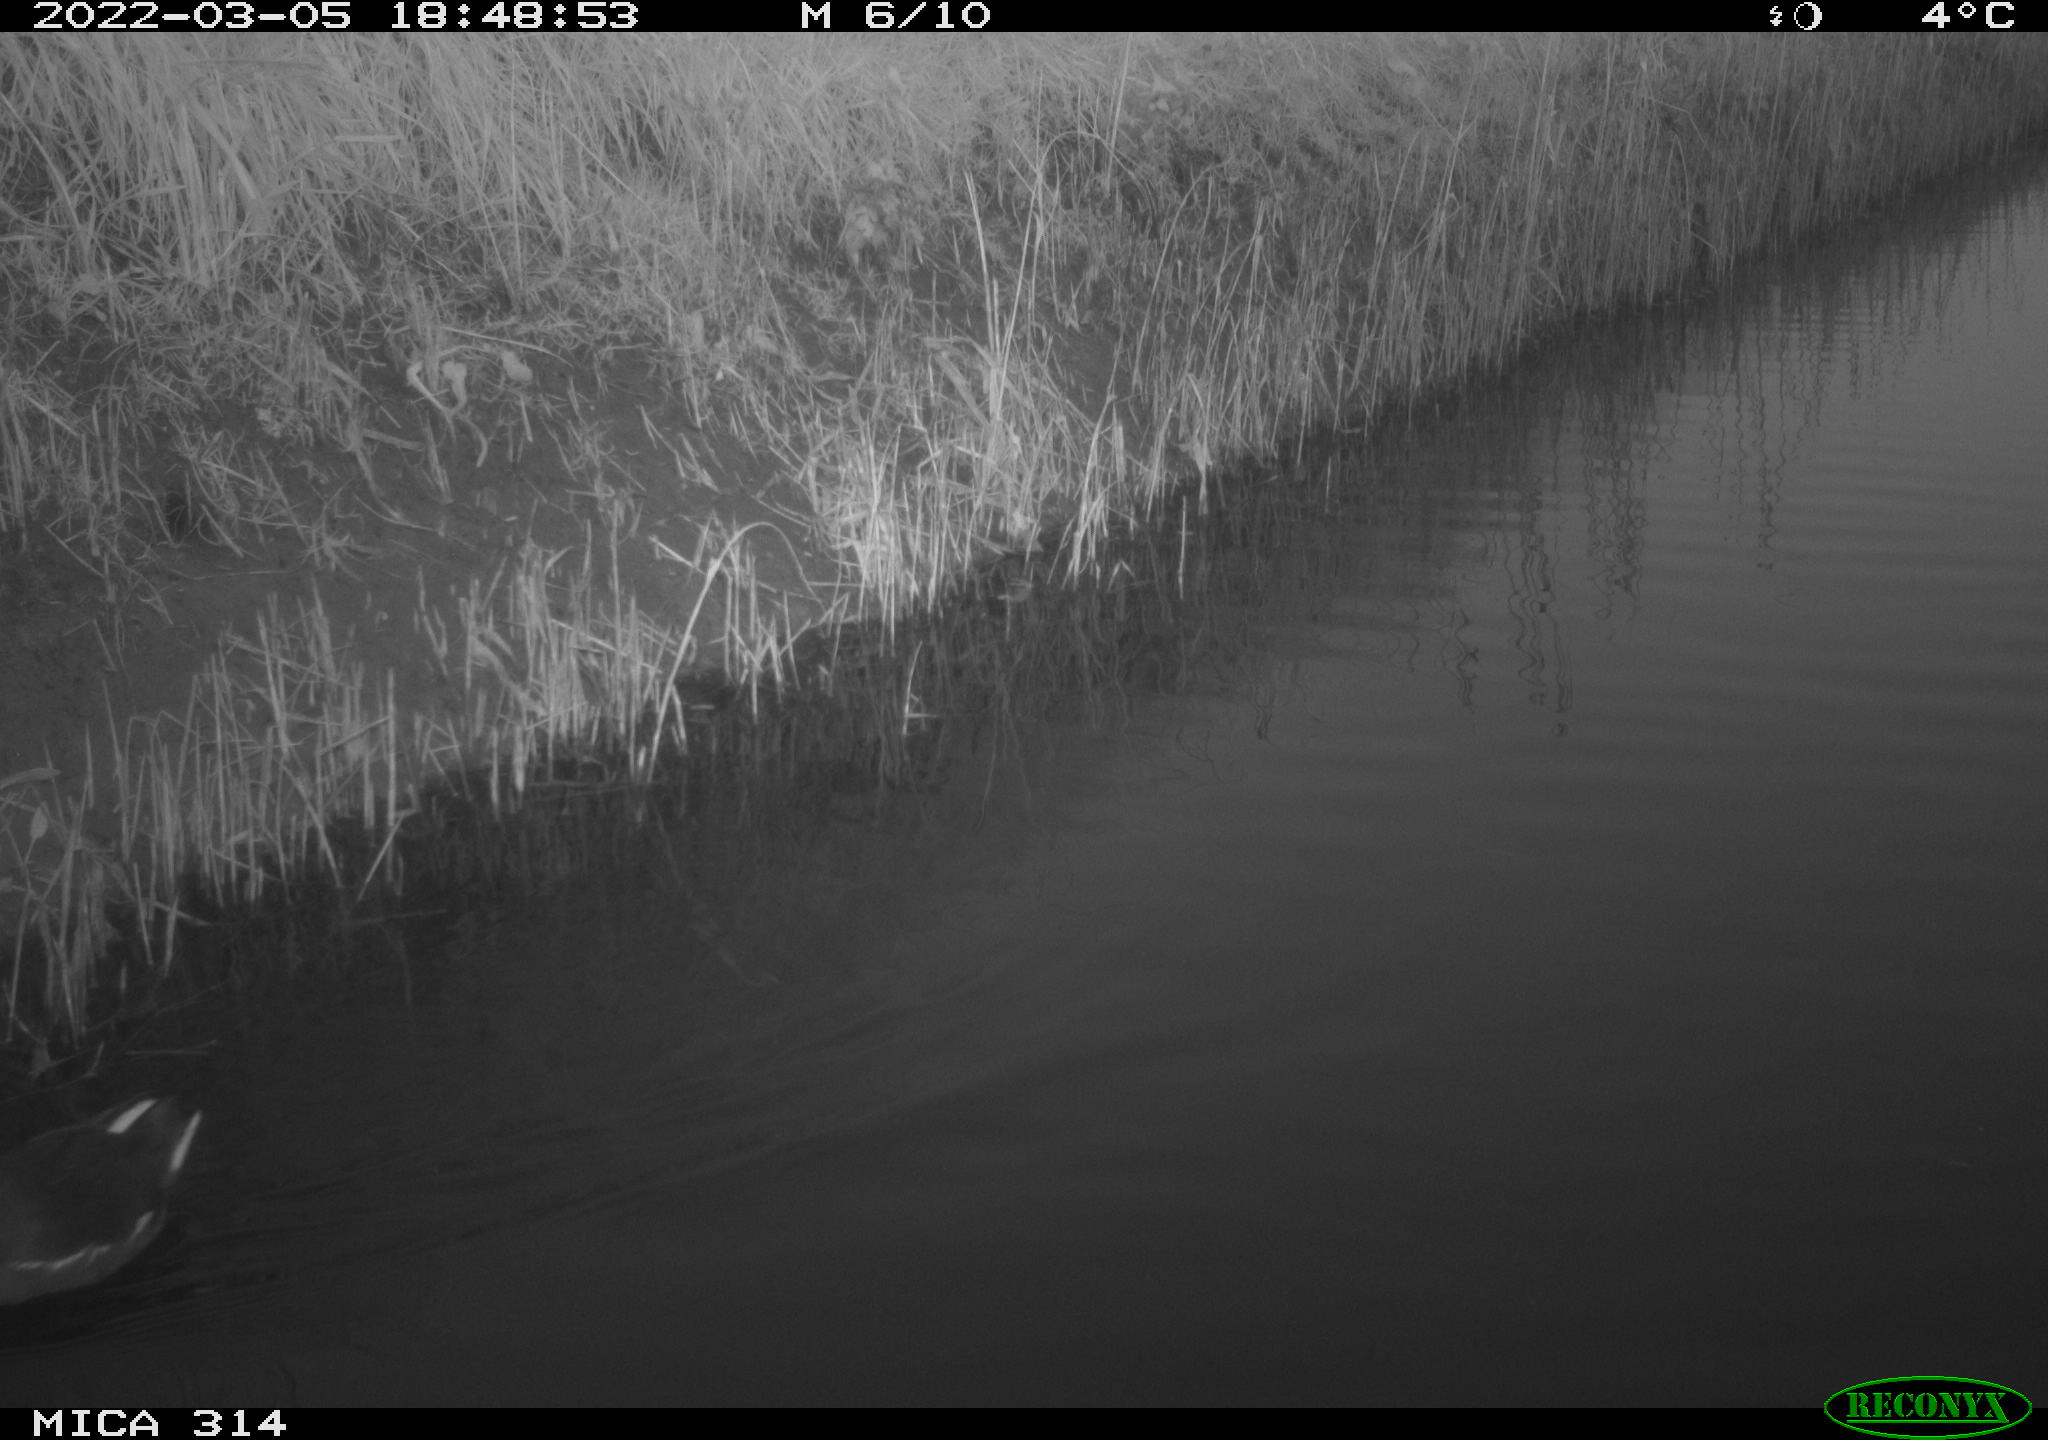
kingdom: Animalia
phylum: Chordata
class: Aves
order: Gruiformes
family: Rallidae
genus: Gallinula
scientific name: Gallinula chloropus
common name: Common moorhen
